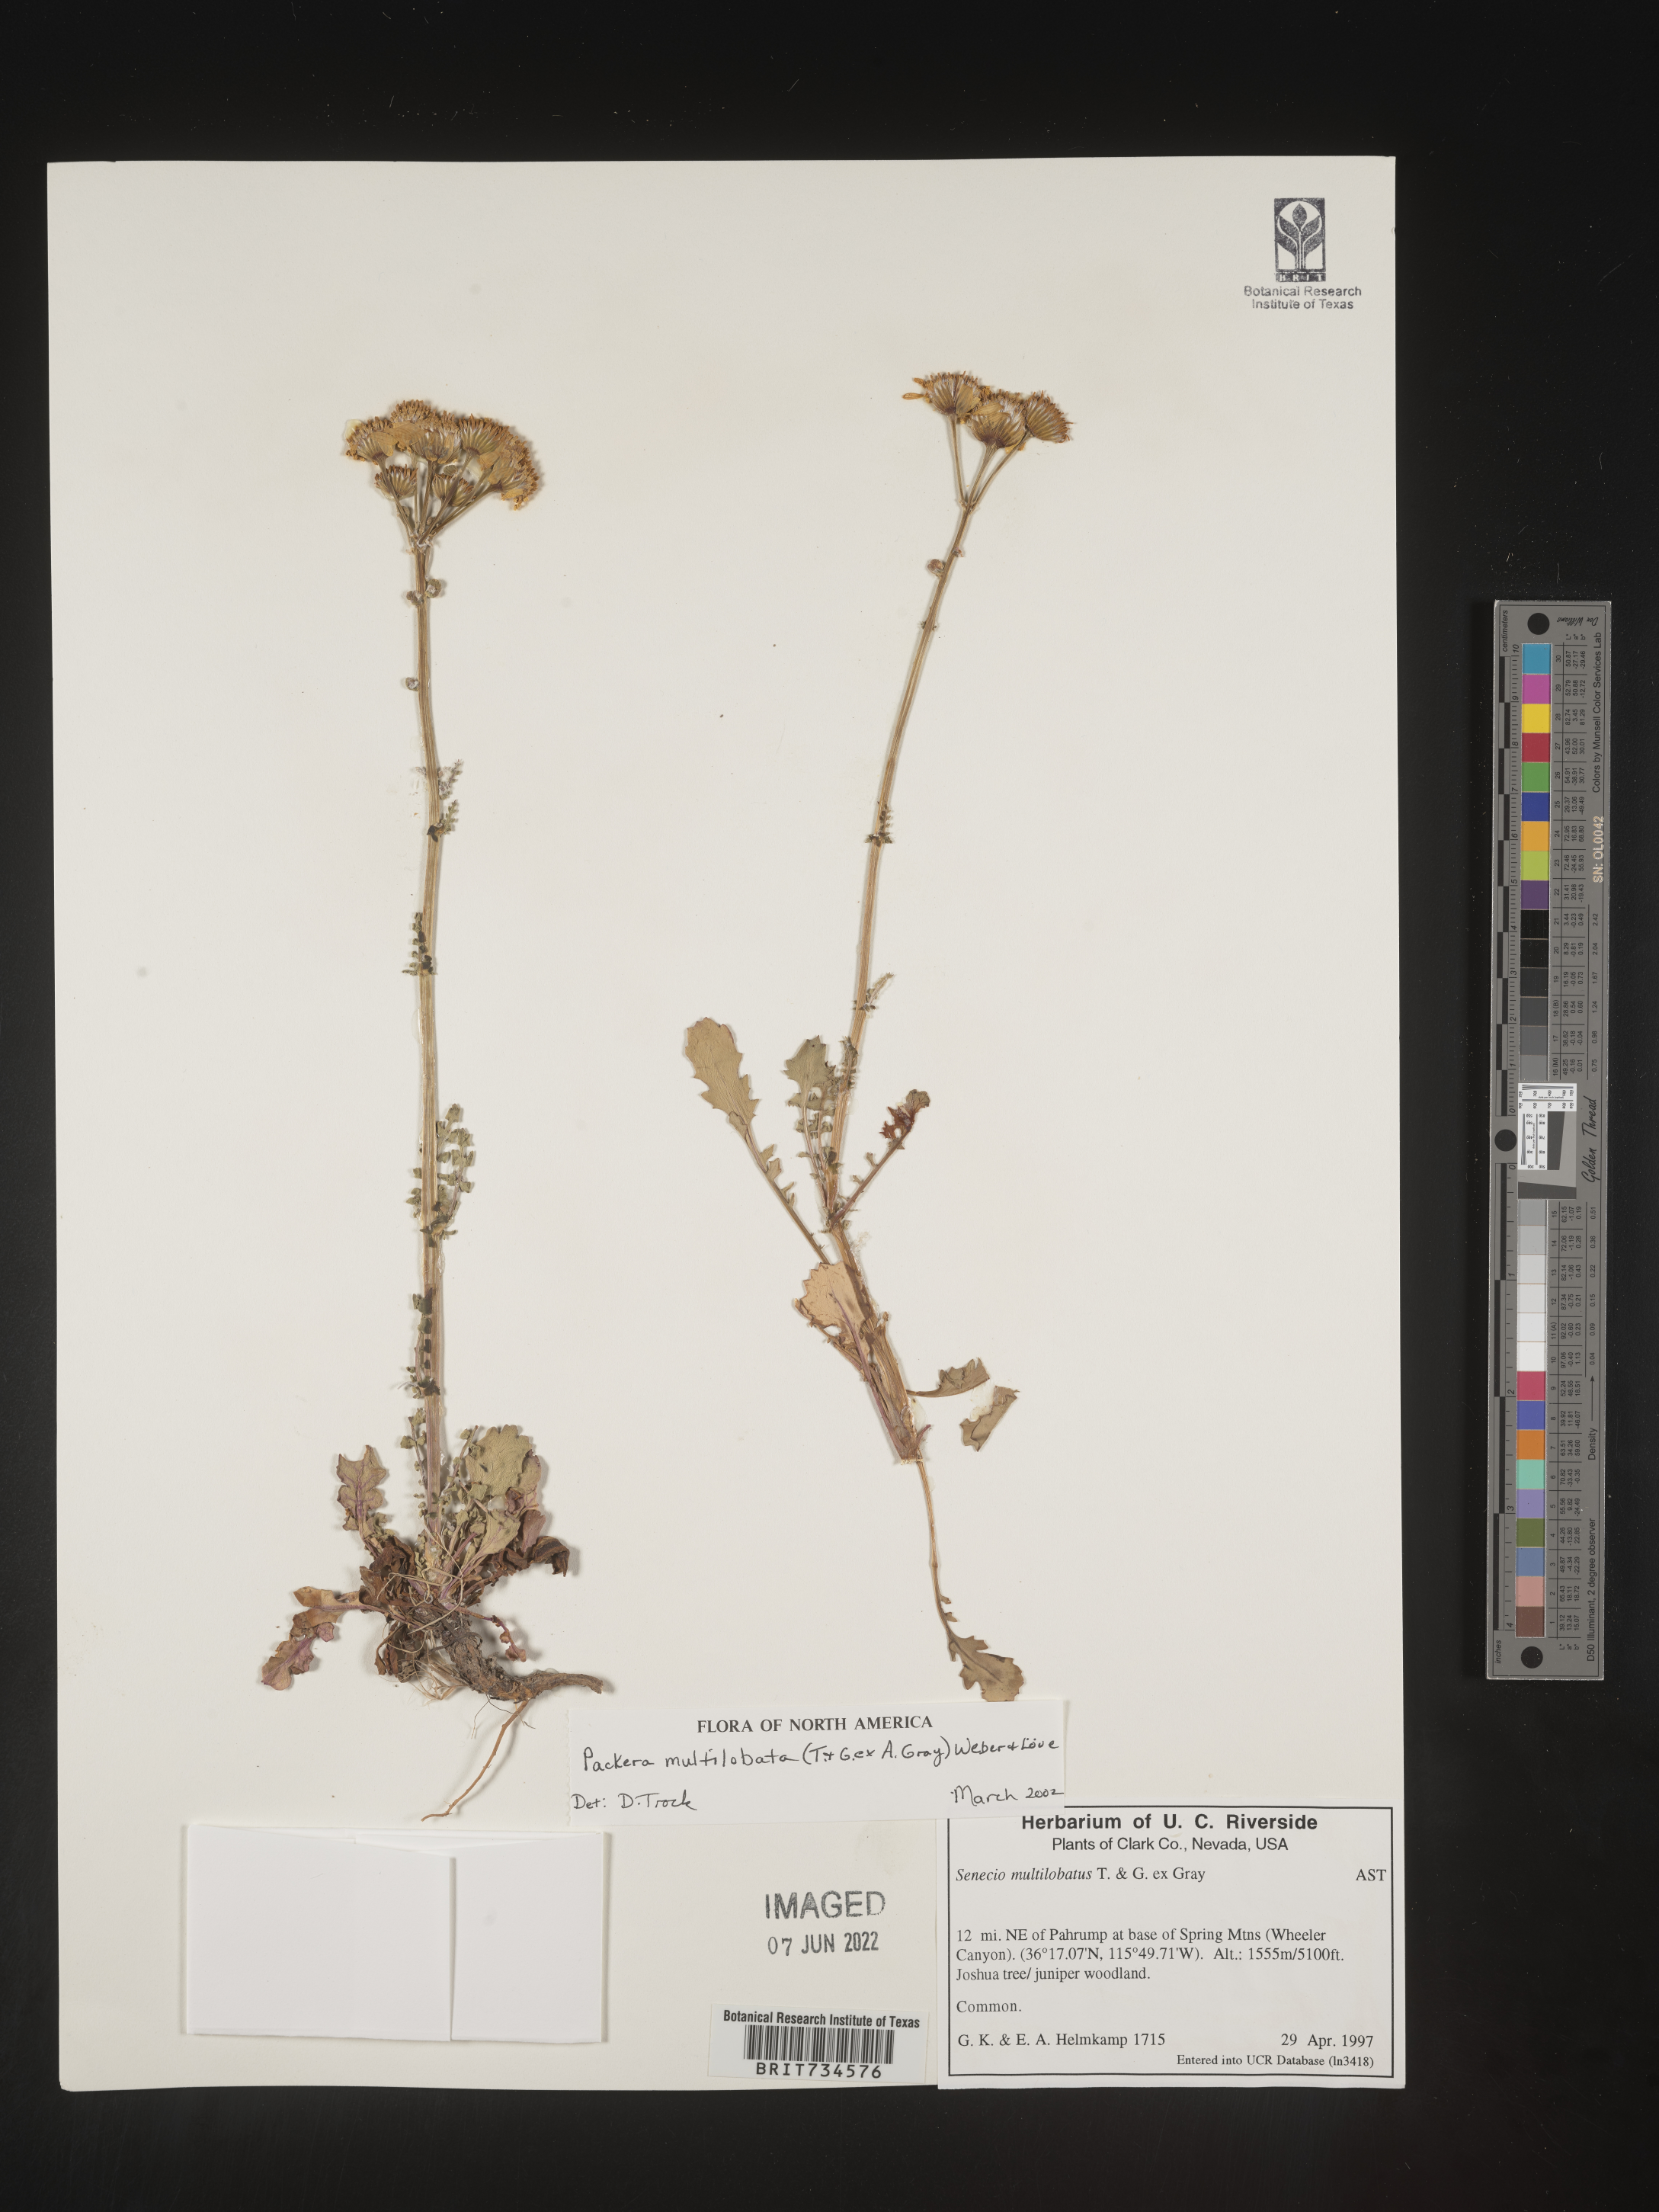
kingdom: Plantae
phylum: Tracheophyta
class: Magnoliopsida
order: Asterales
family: Asteraceae
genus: Packera
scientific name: Packera multilobata
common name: Lobe-leaf groundsel
